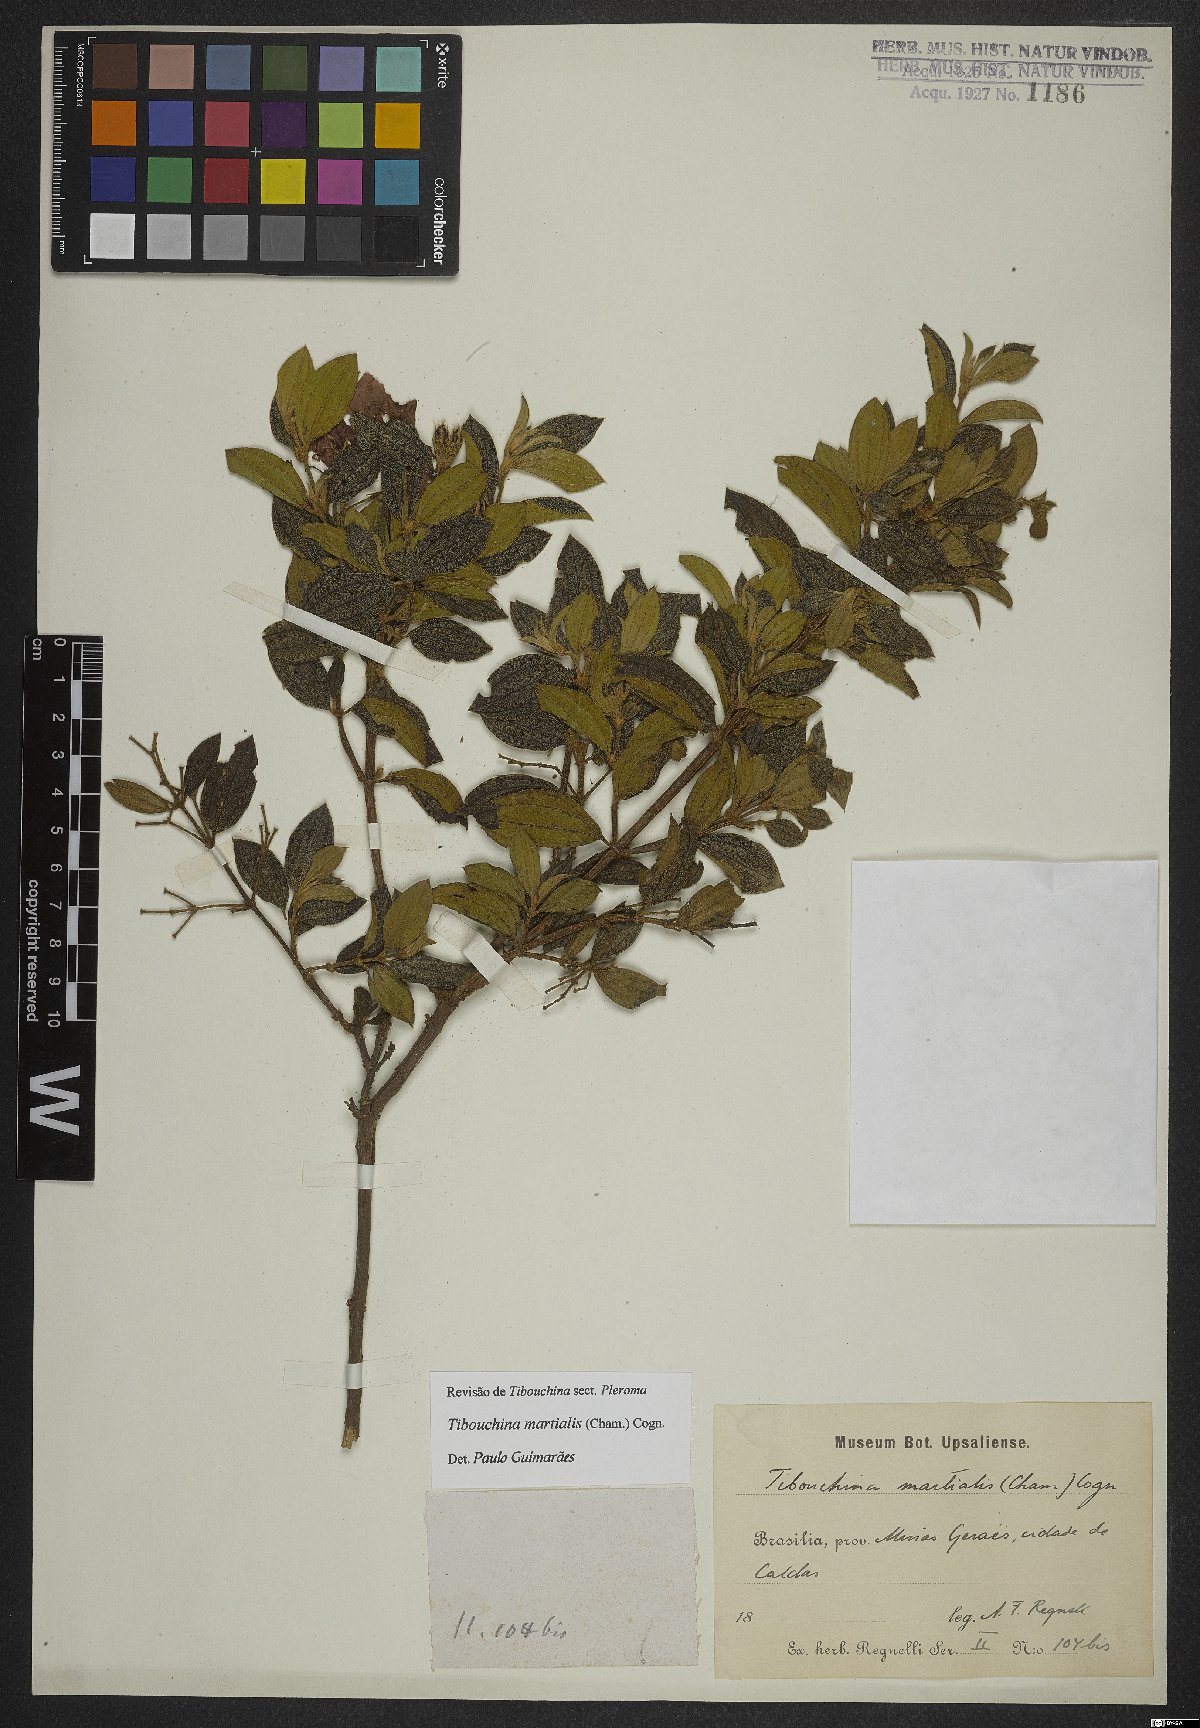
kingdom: Plantae
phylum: Tracheophyta
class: Magnoliopsida
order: Myrtales
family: Melastomataceae
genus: Pleroma
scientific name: Pleroma martiale
